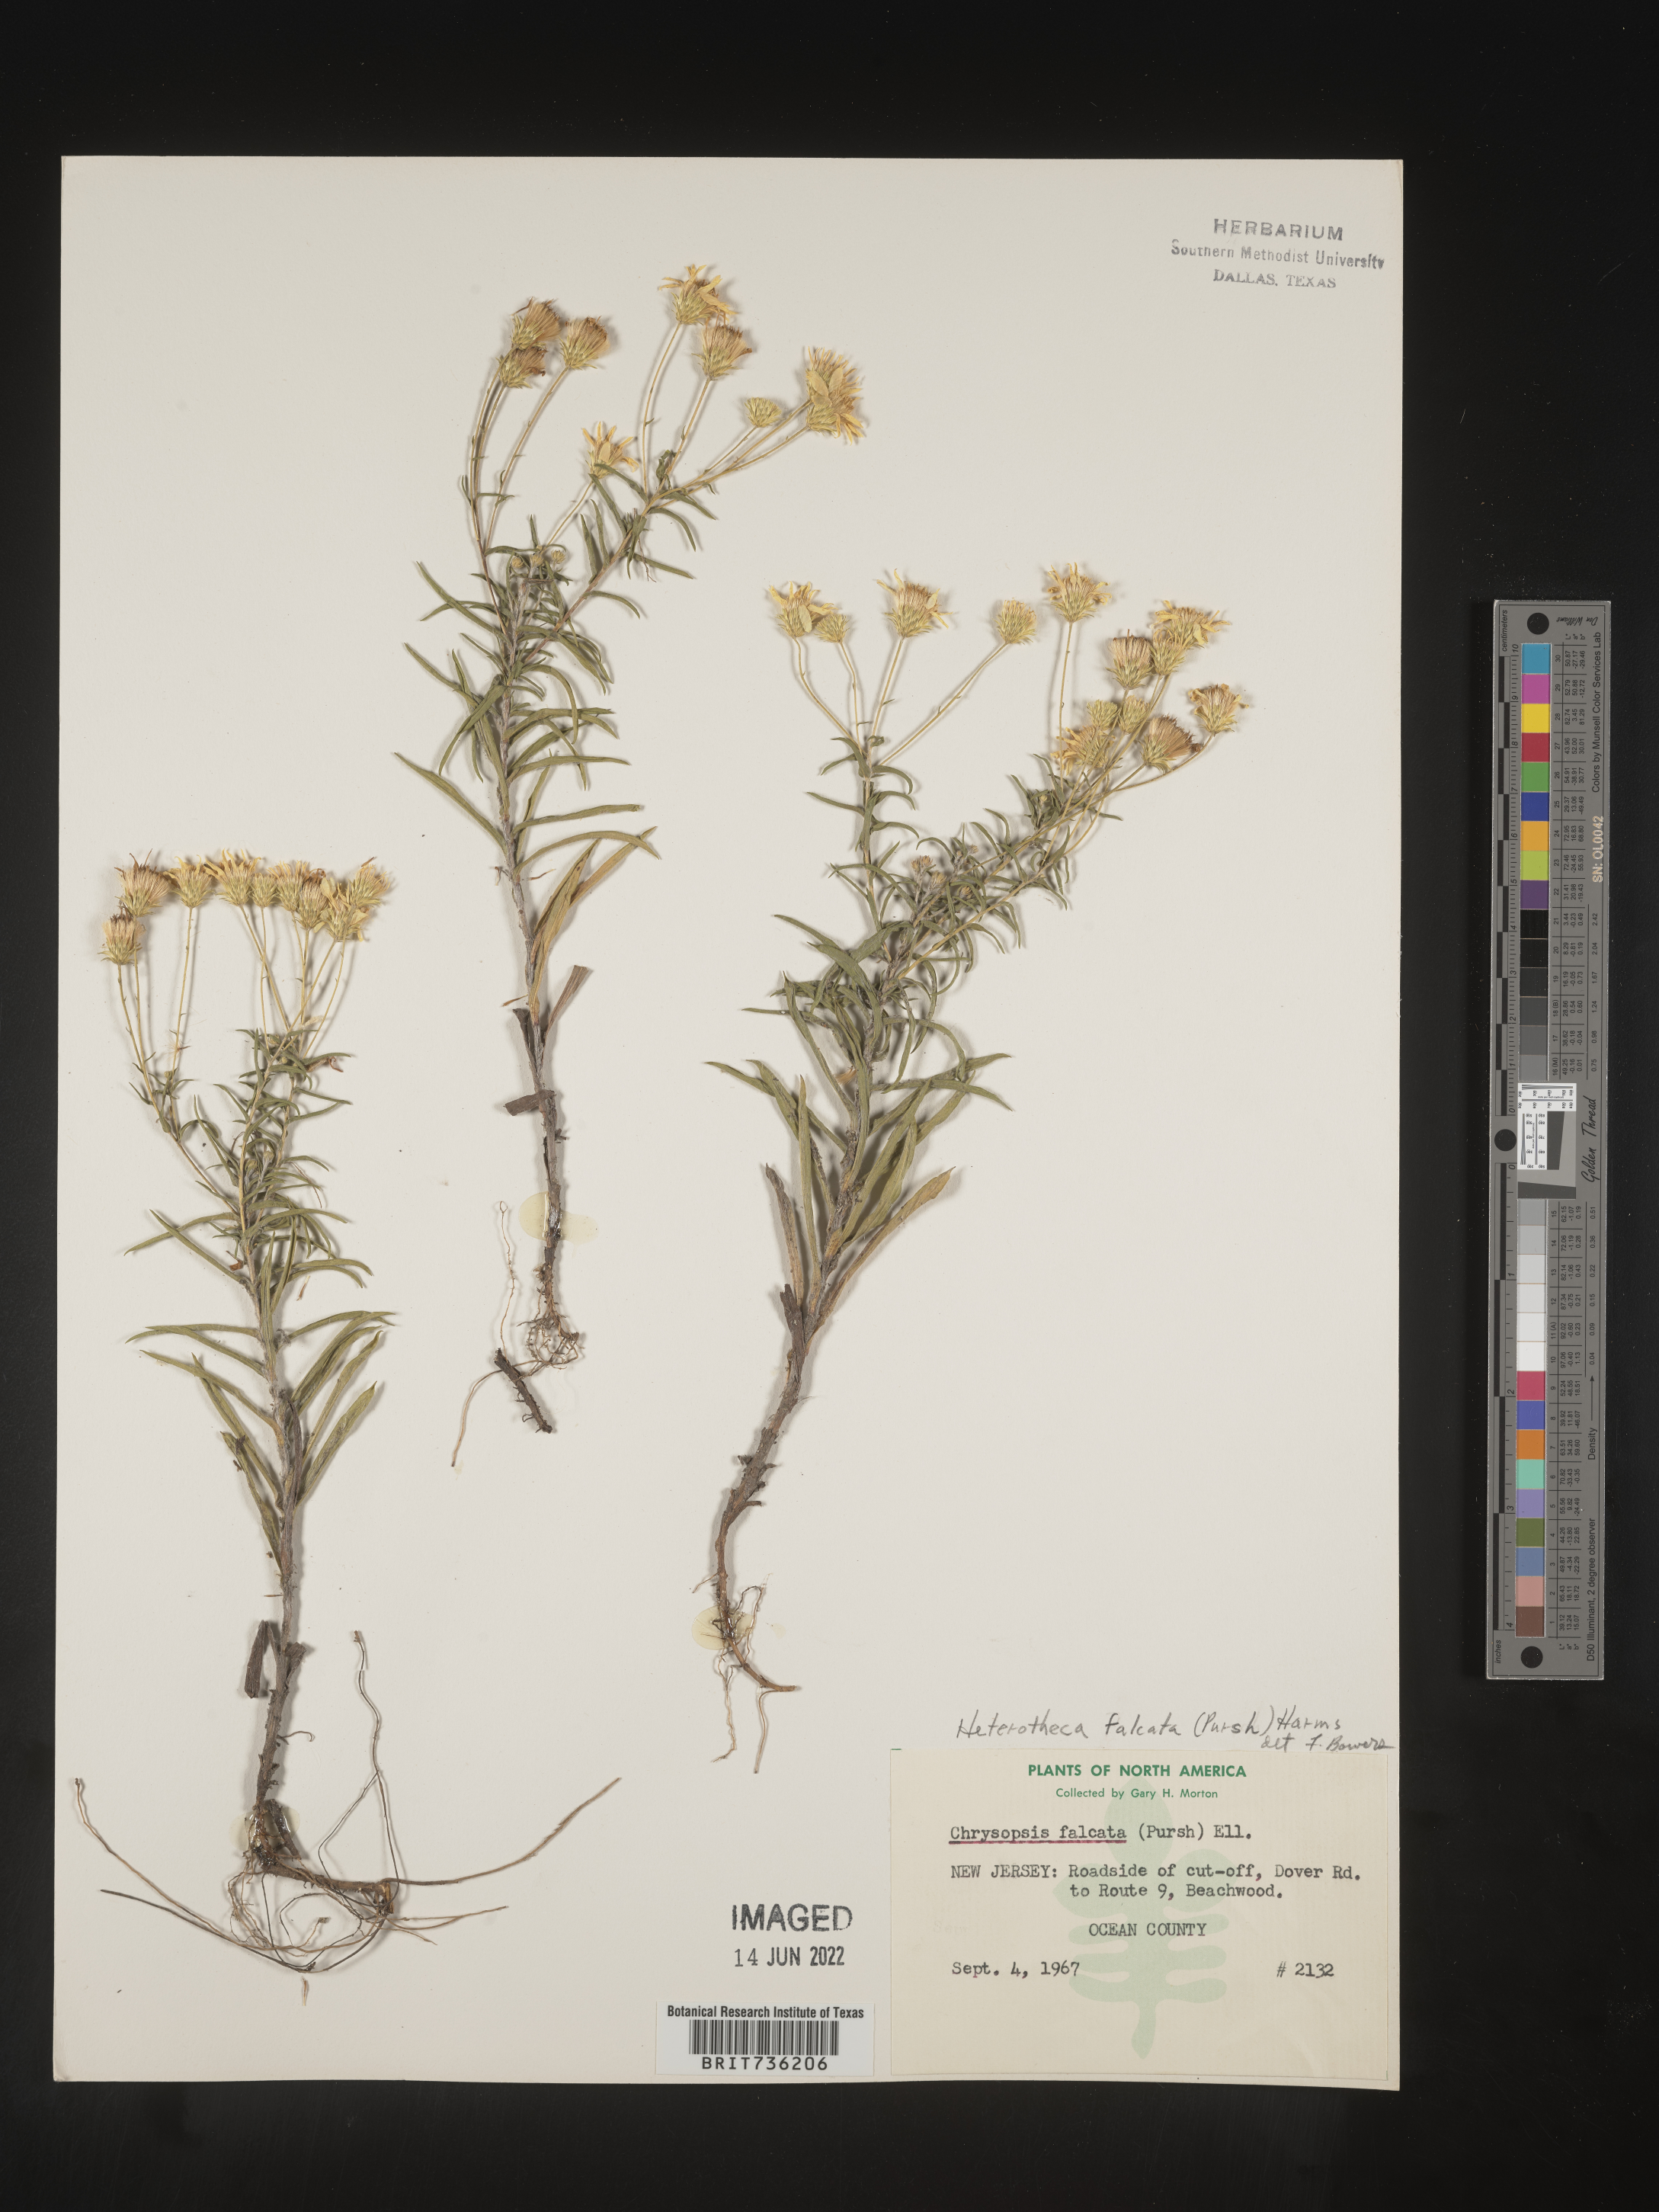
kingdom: Plantae
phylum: Tracheophyta
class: Magnoliopsida
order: Asterales
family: Asteraceae
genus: Pityopsis
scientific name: Pityopsis falcata
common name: Sickle-leaved goldenaster
